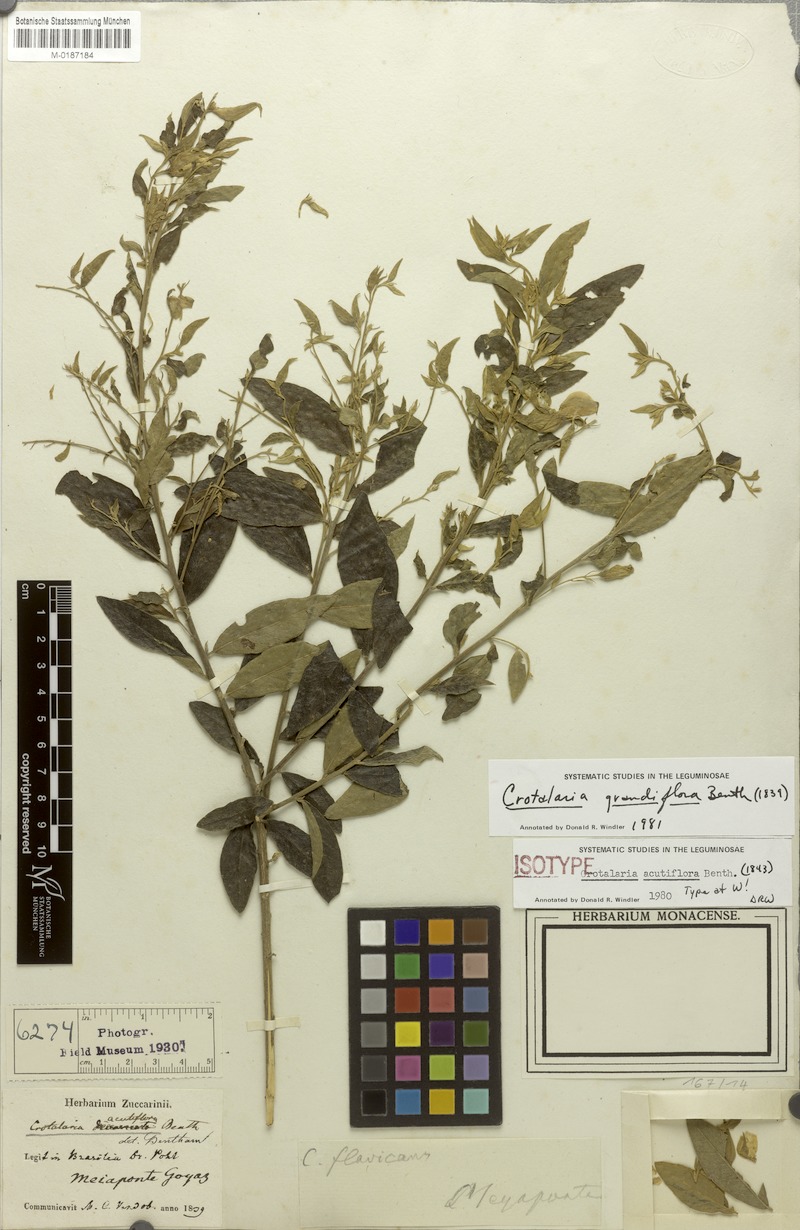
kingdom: Plantae
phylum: Tracheophyta
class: Magnoliopsida
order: Fabales
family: Fabaceae
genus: Crotalaria
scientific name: Crotalaria grandiflora
